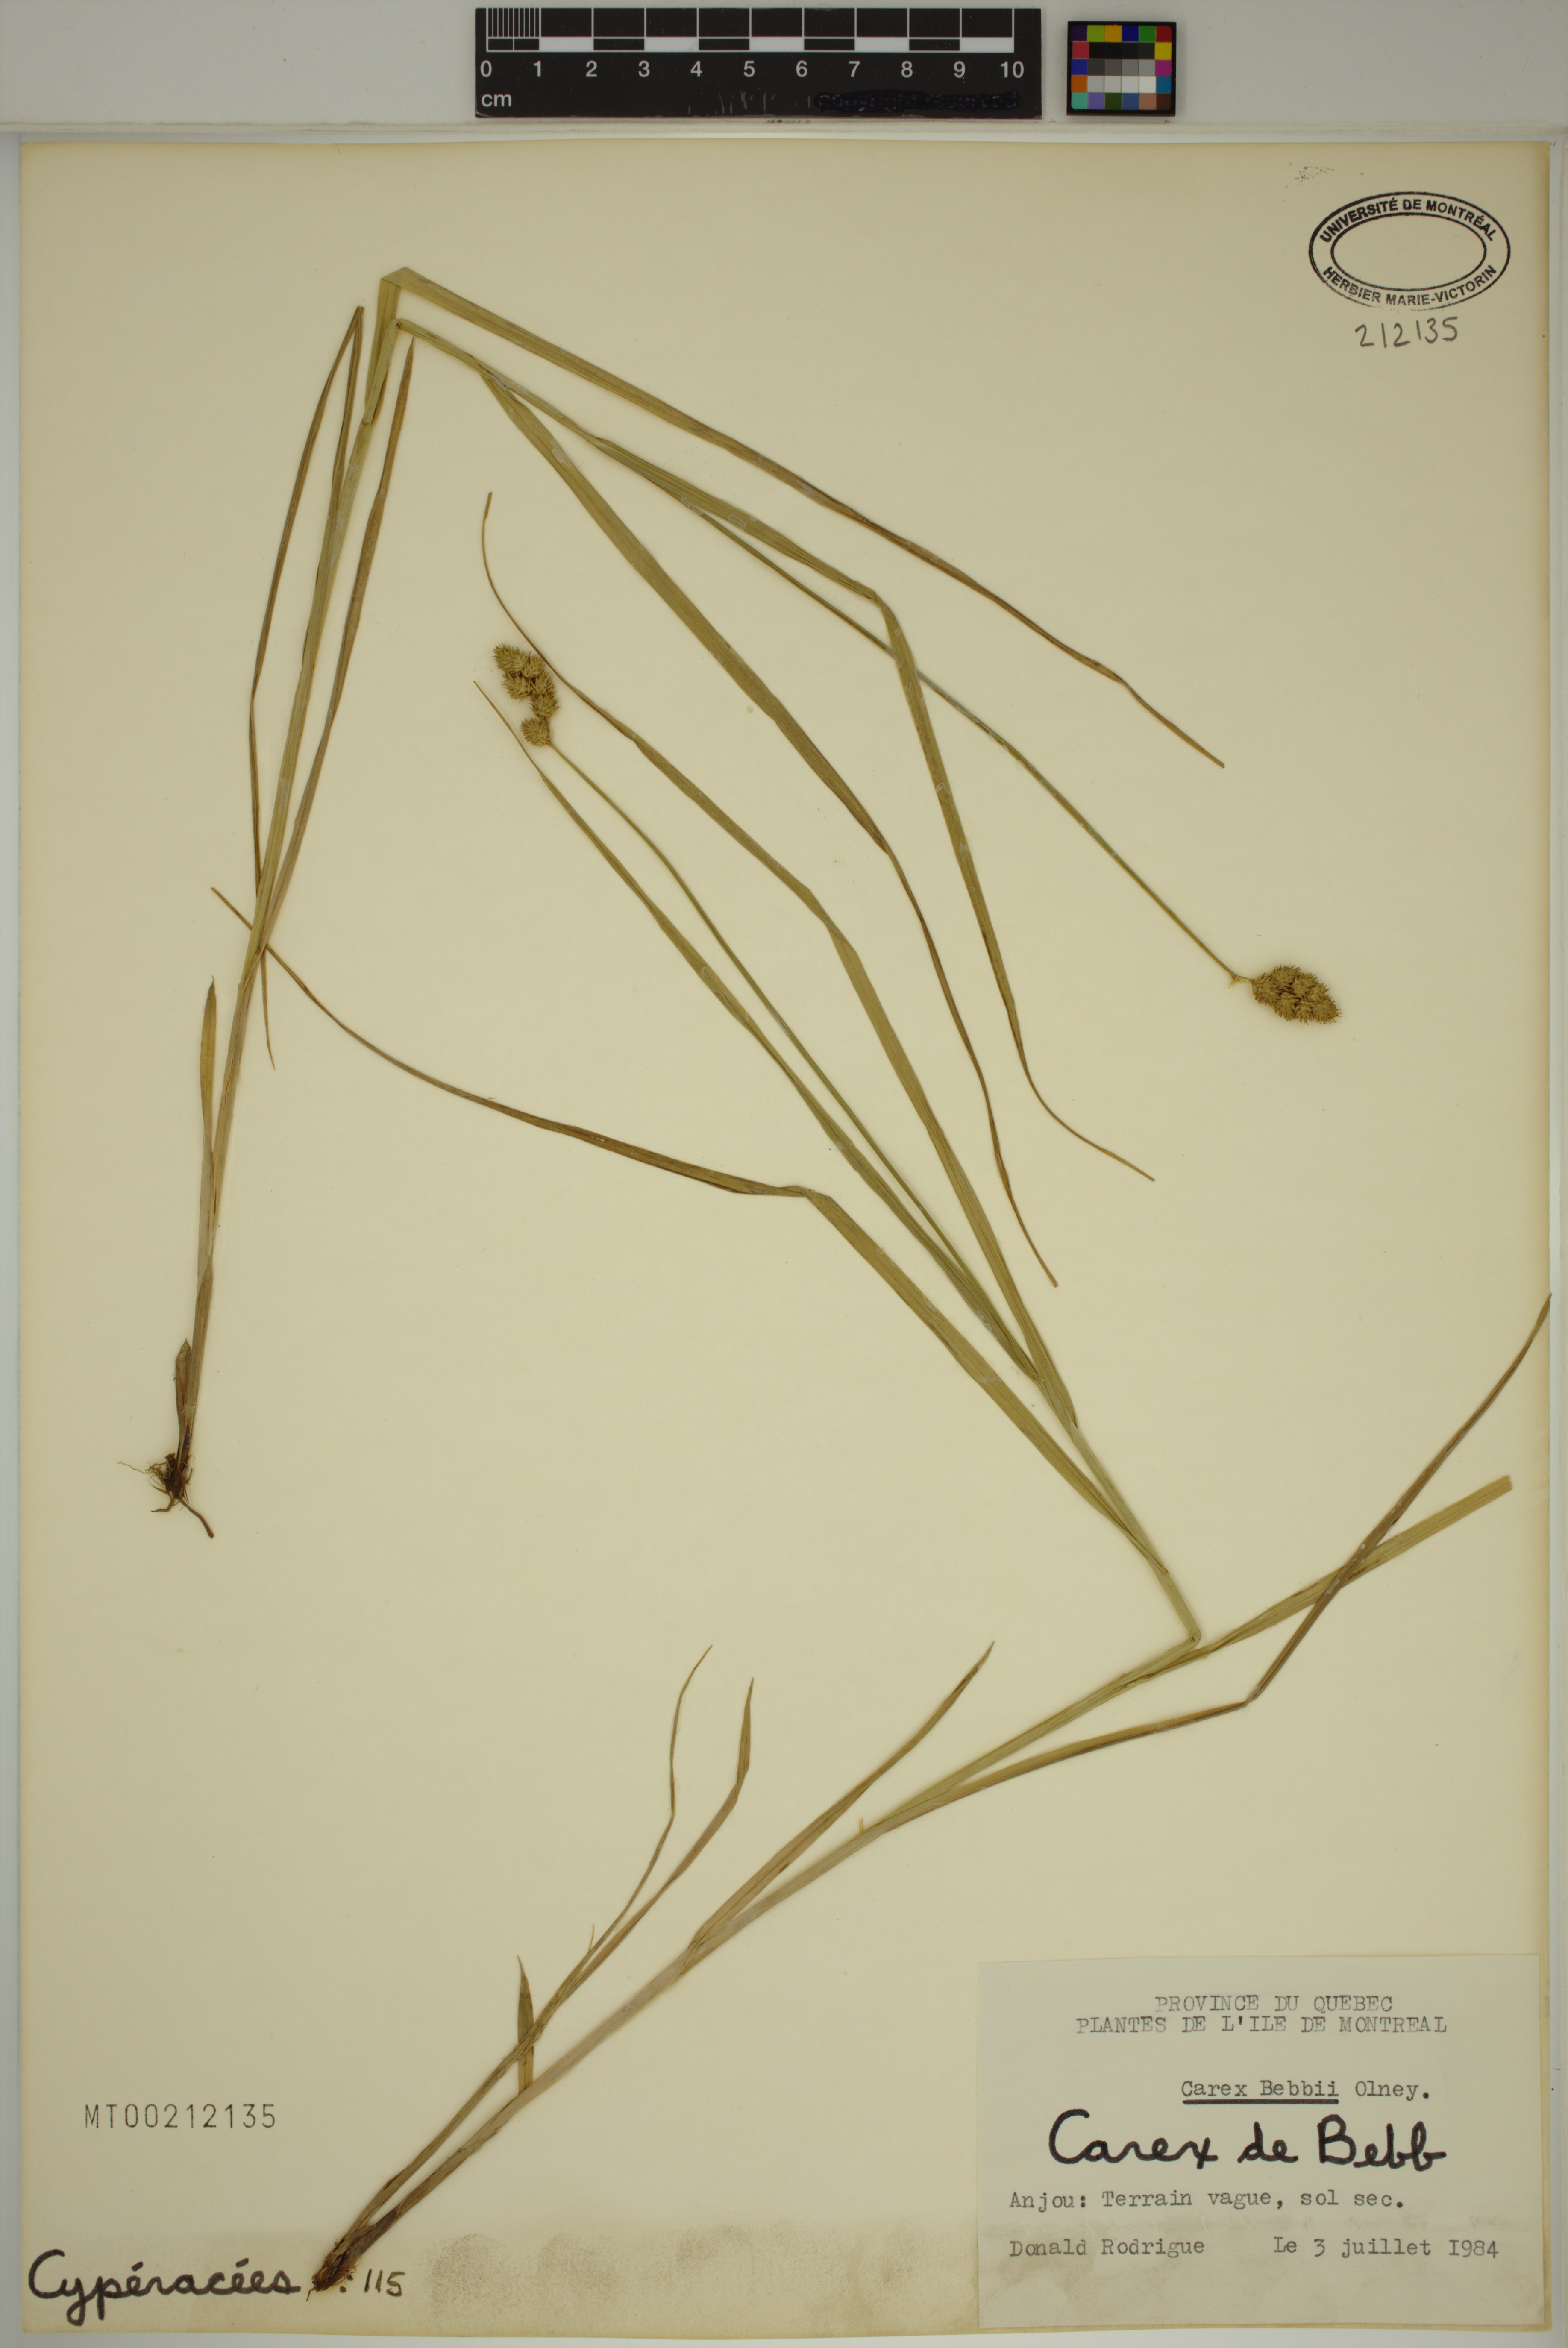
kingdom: Plantae
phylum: Tracheophyta
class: Liliopsida
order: Poales
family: Cyperaceae
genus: Carex
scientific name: Carex bebbii
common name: Bebb's sedge
